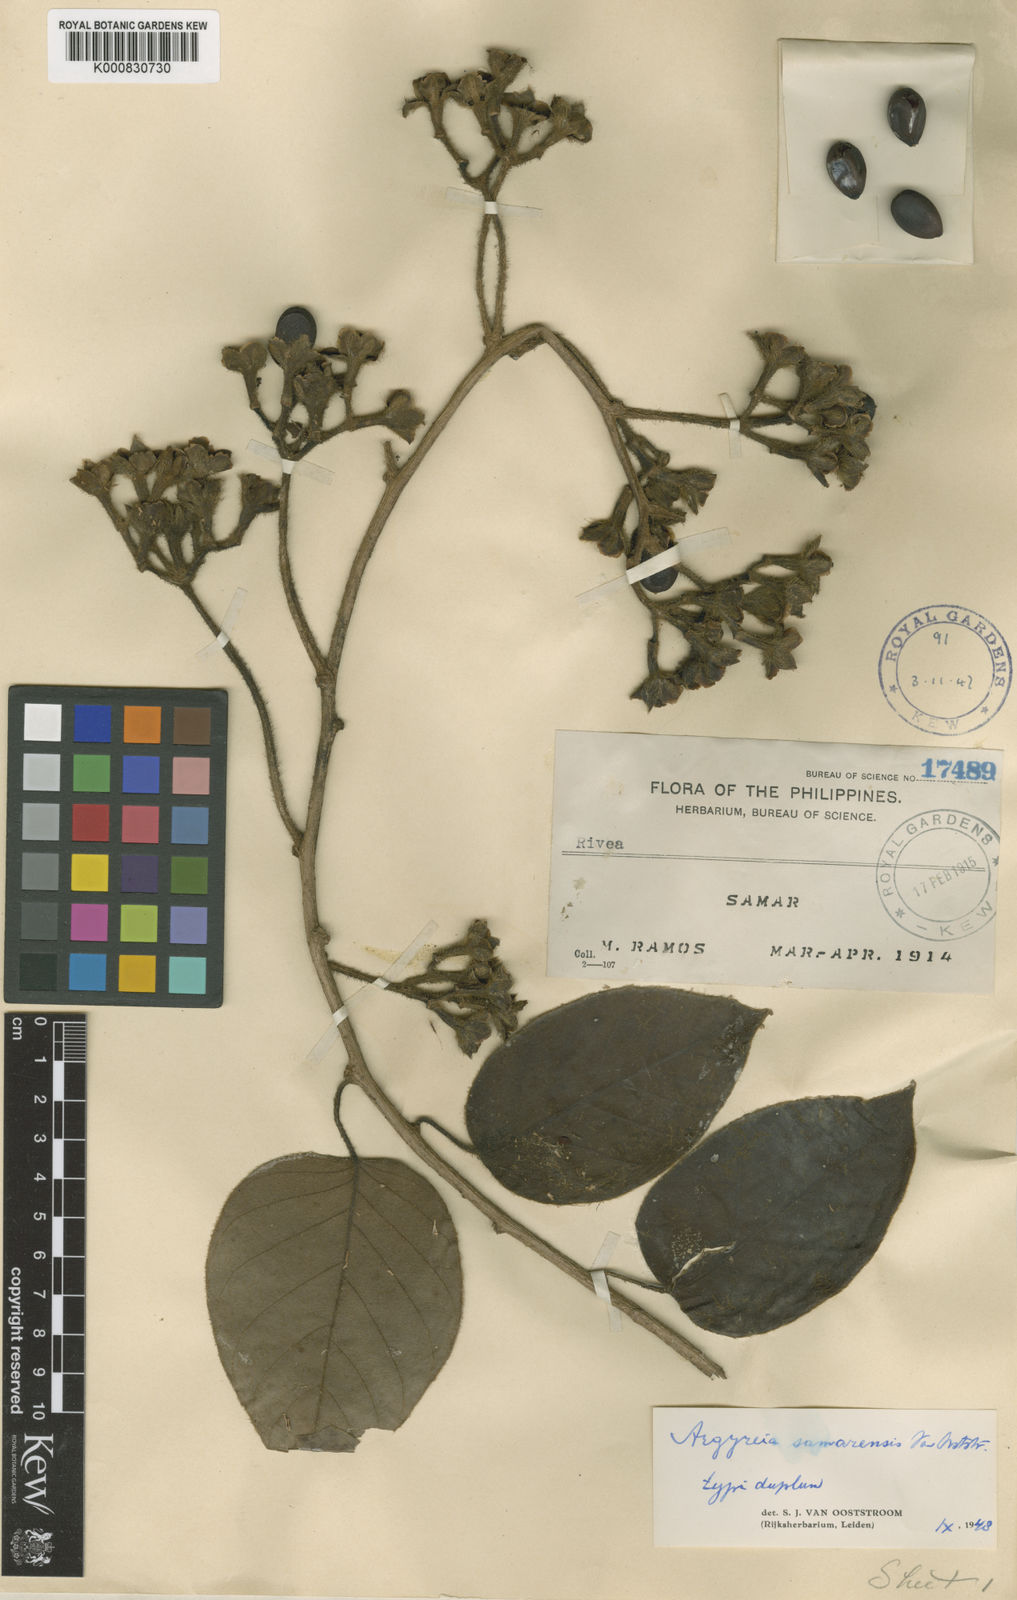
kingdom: Plantae
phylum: Tracheophyta
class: Magnoliopsida
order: Solanales
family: Convolvulaceae
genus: Argyreia
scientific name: Argyreia samarensis
